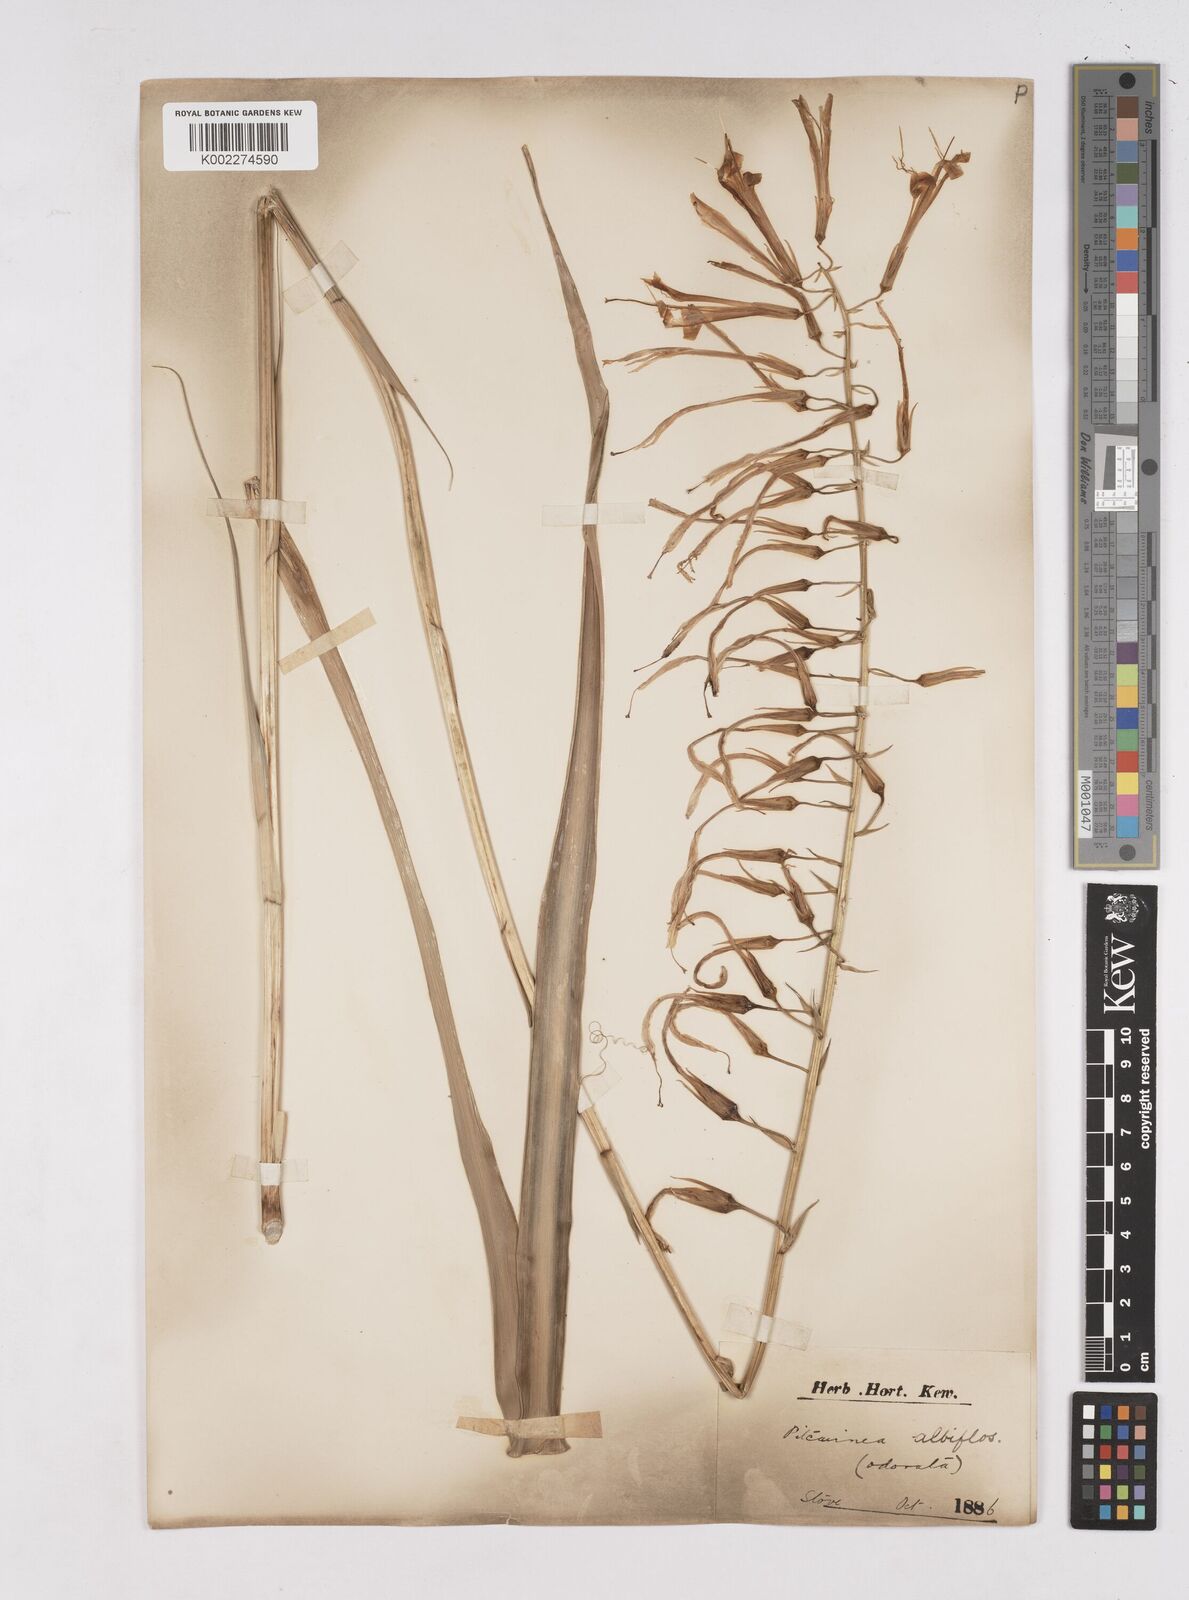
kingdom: Plantae
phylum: Tracheophyta
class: Liliopsida
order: Poales
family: Bromeliaceae
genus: Pitcairnia
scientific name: Pitcairnia albiflos
